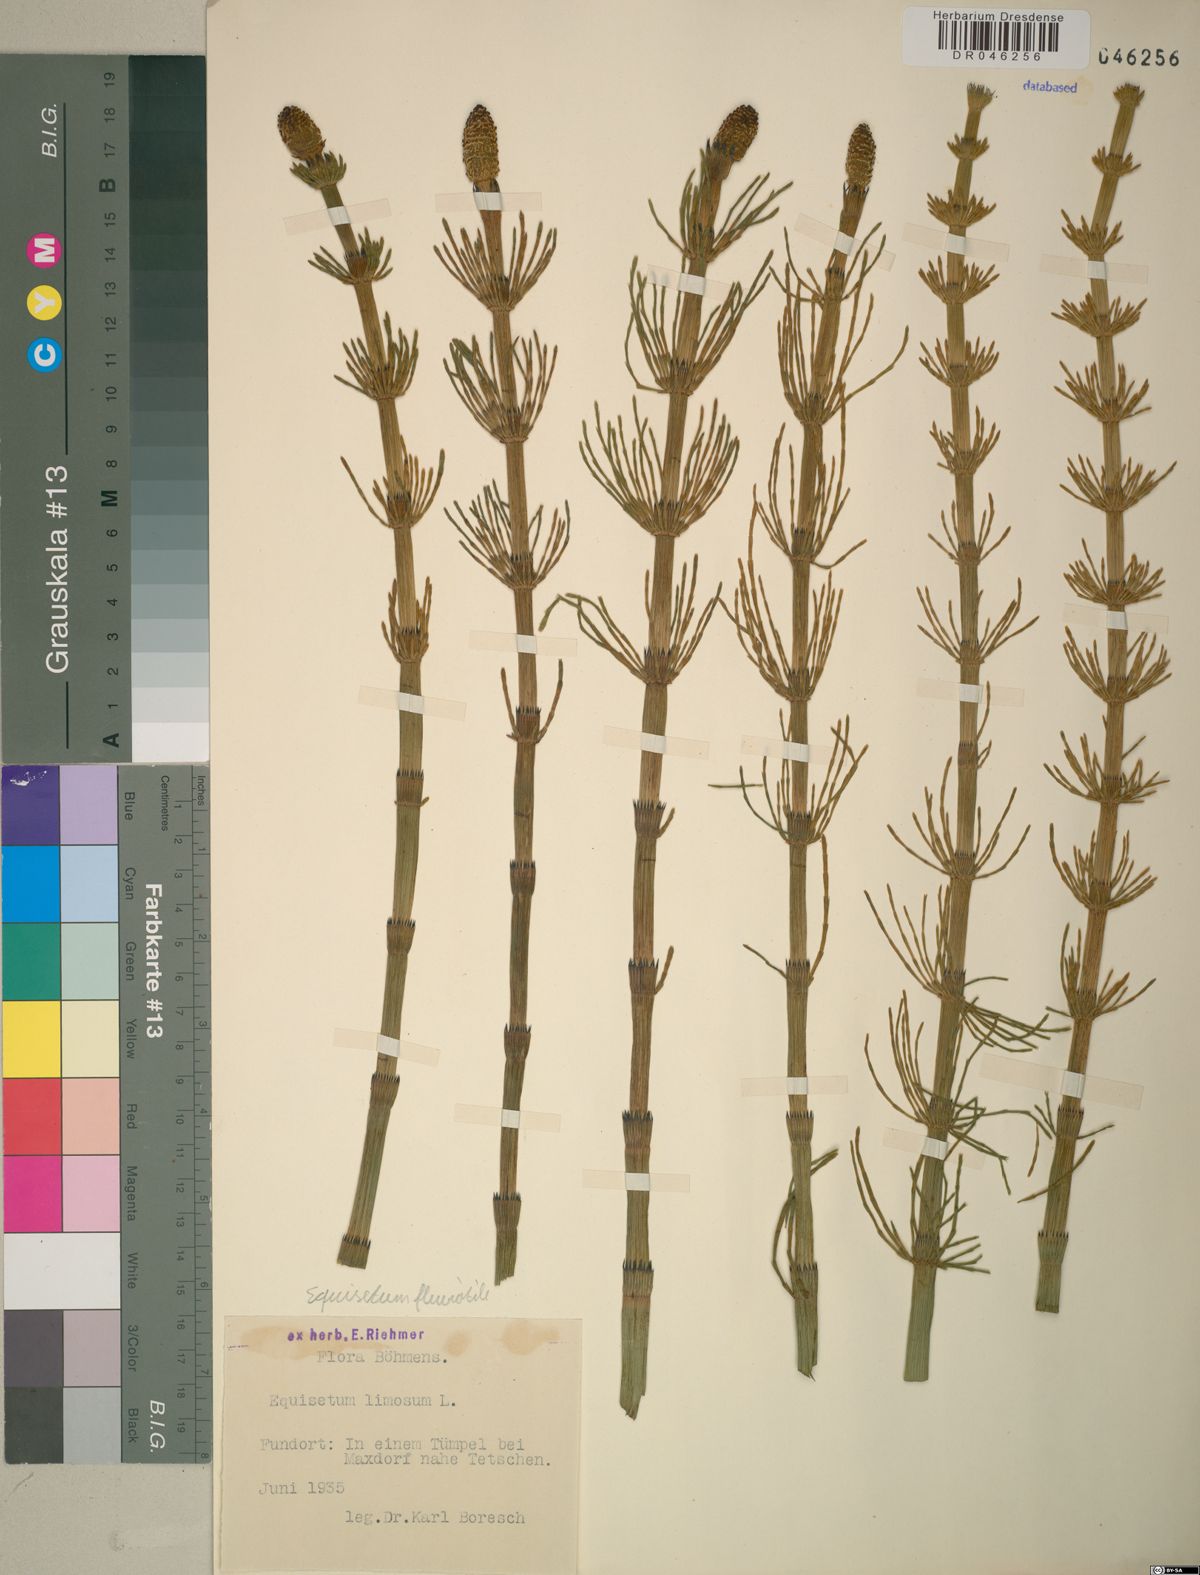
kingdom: Plantae
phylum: Tracheophyta
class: Polypodiopsida
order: Equisetales
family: Equisetaceae
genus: Equisetum
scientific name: Equisetum fluviatile
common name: Water horsetail
